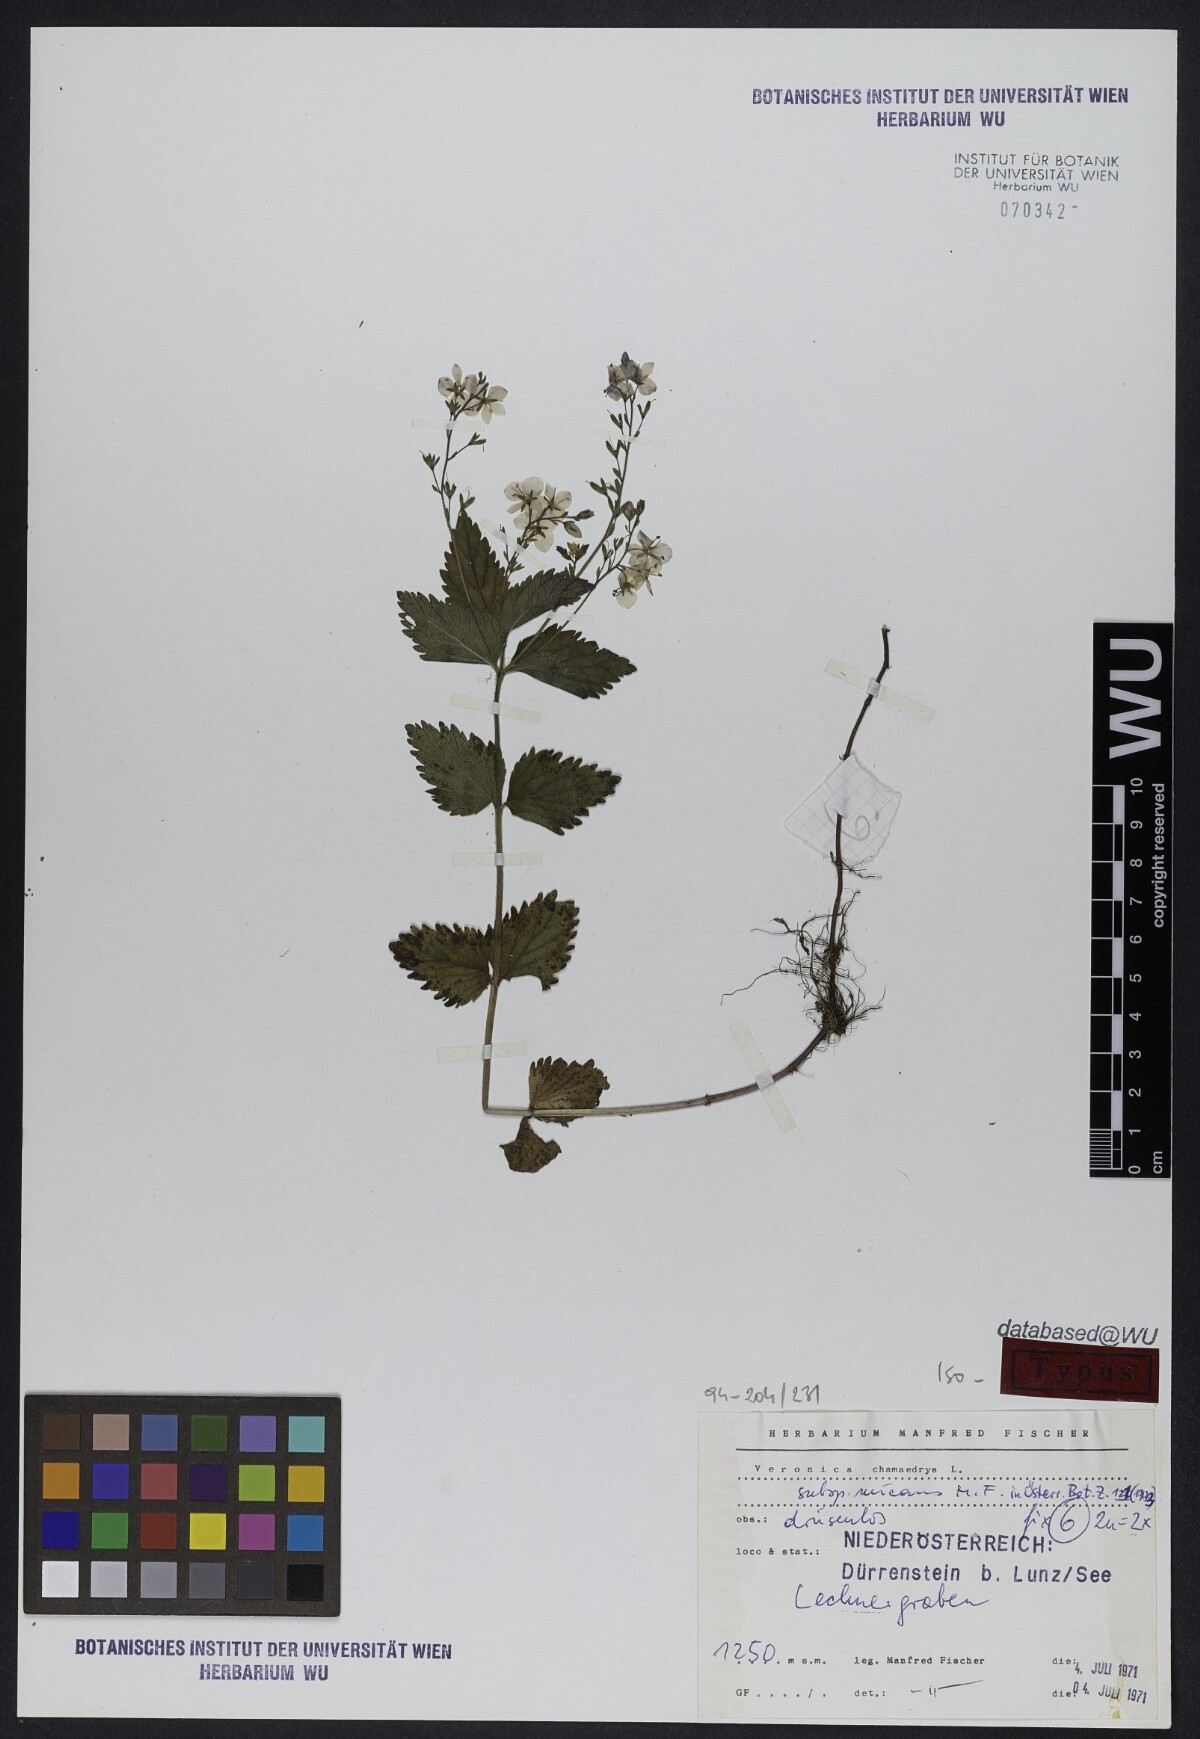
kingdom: Plantae
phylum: Tracheophyta
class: Magnoliopsida
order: Lamiales
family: Plantaginaceae
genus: Veronica
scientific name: Veronica chamaedrys
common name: Germander speedwell
